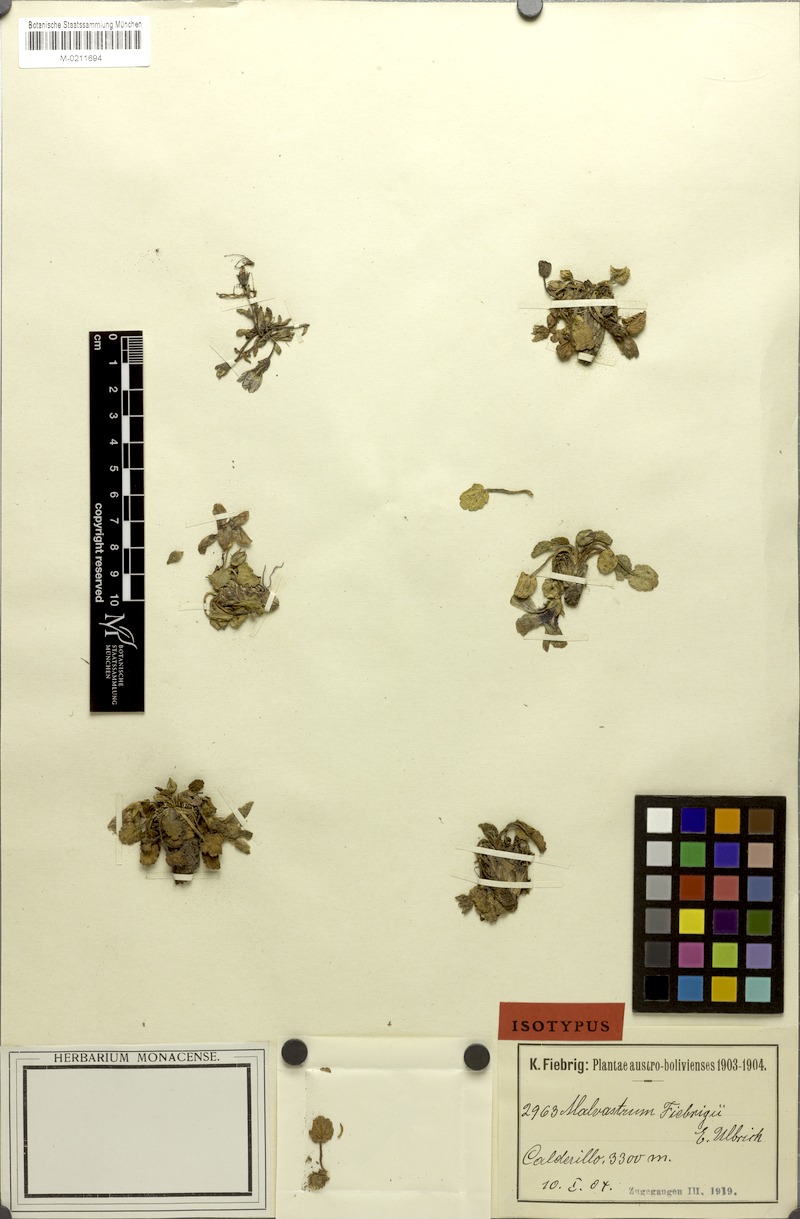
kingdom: Plantae
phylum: Tracheophyta
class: Magnoliopsida
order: Malvales
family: Malvaceae
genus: Acaulimalva
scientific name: Acaulimalva nubigena
